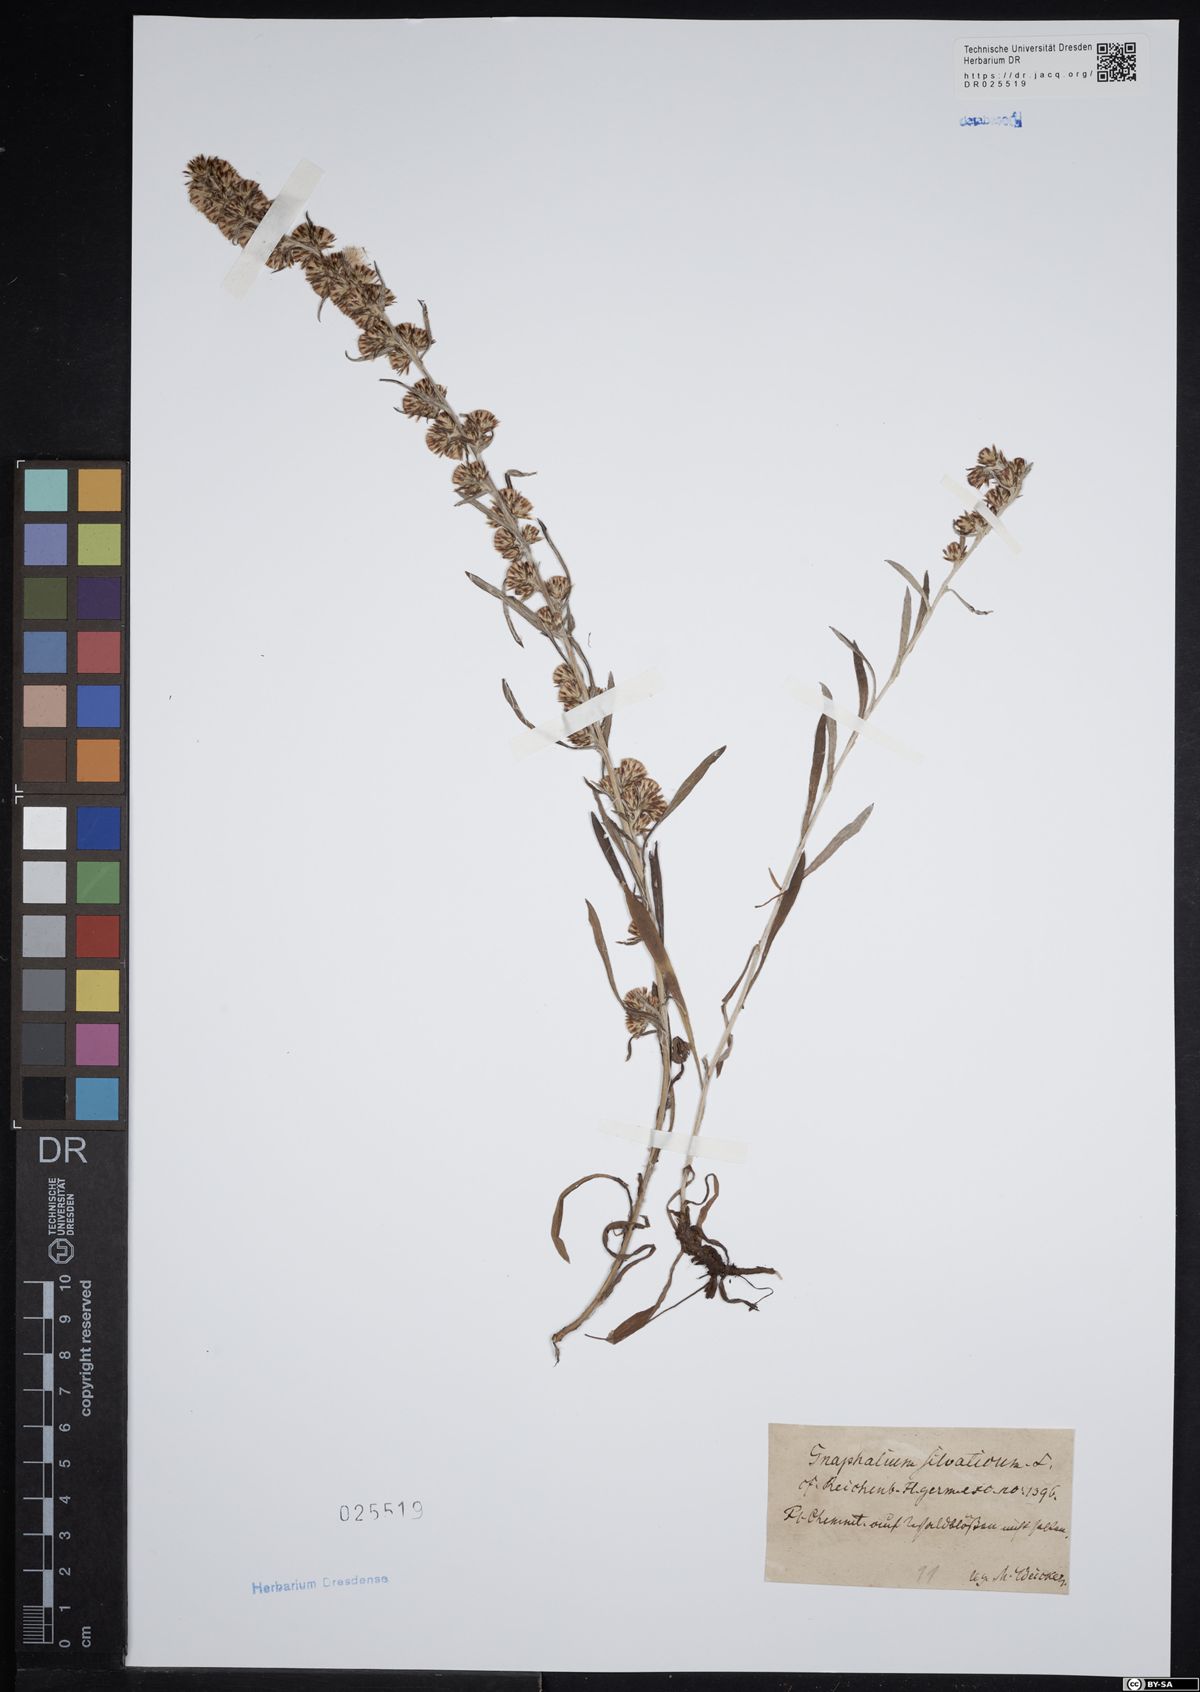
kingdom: Plantae
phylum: Tracheophyta
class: Magnoliopsida
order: Asterales
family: Asteraceae
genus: Gnaphalium
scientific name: Gnaphalium uliginosum
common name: Marsh cudweed
